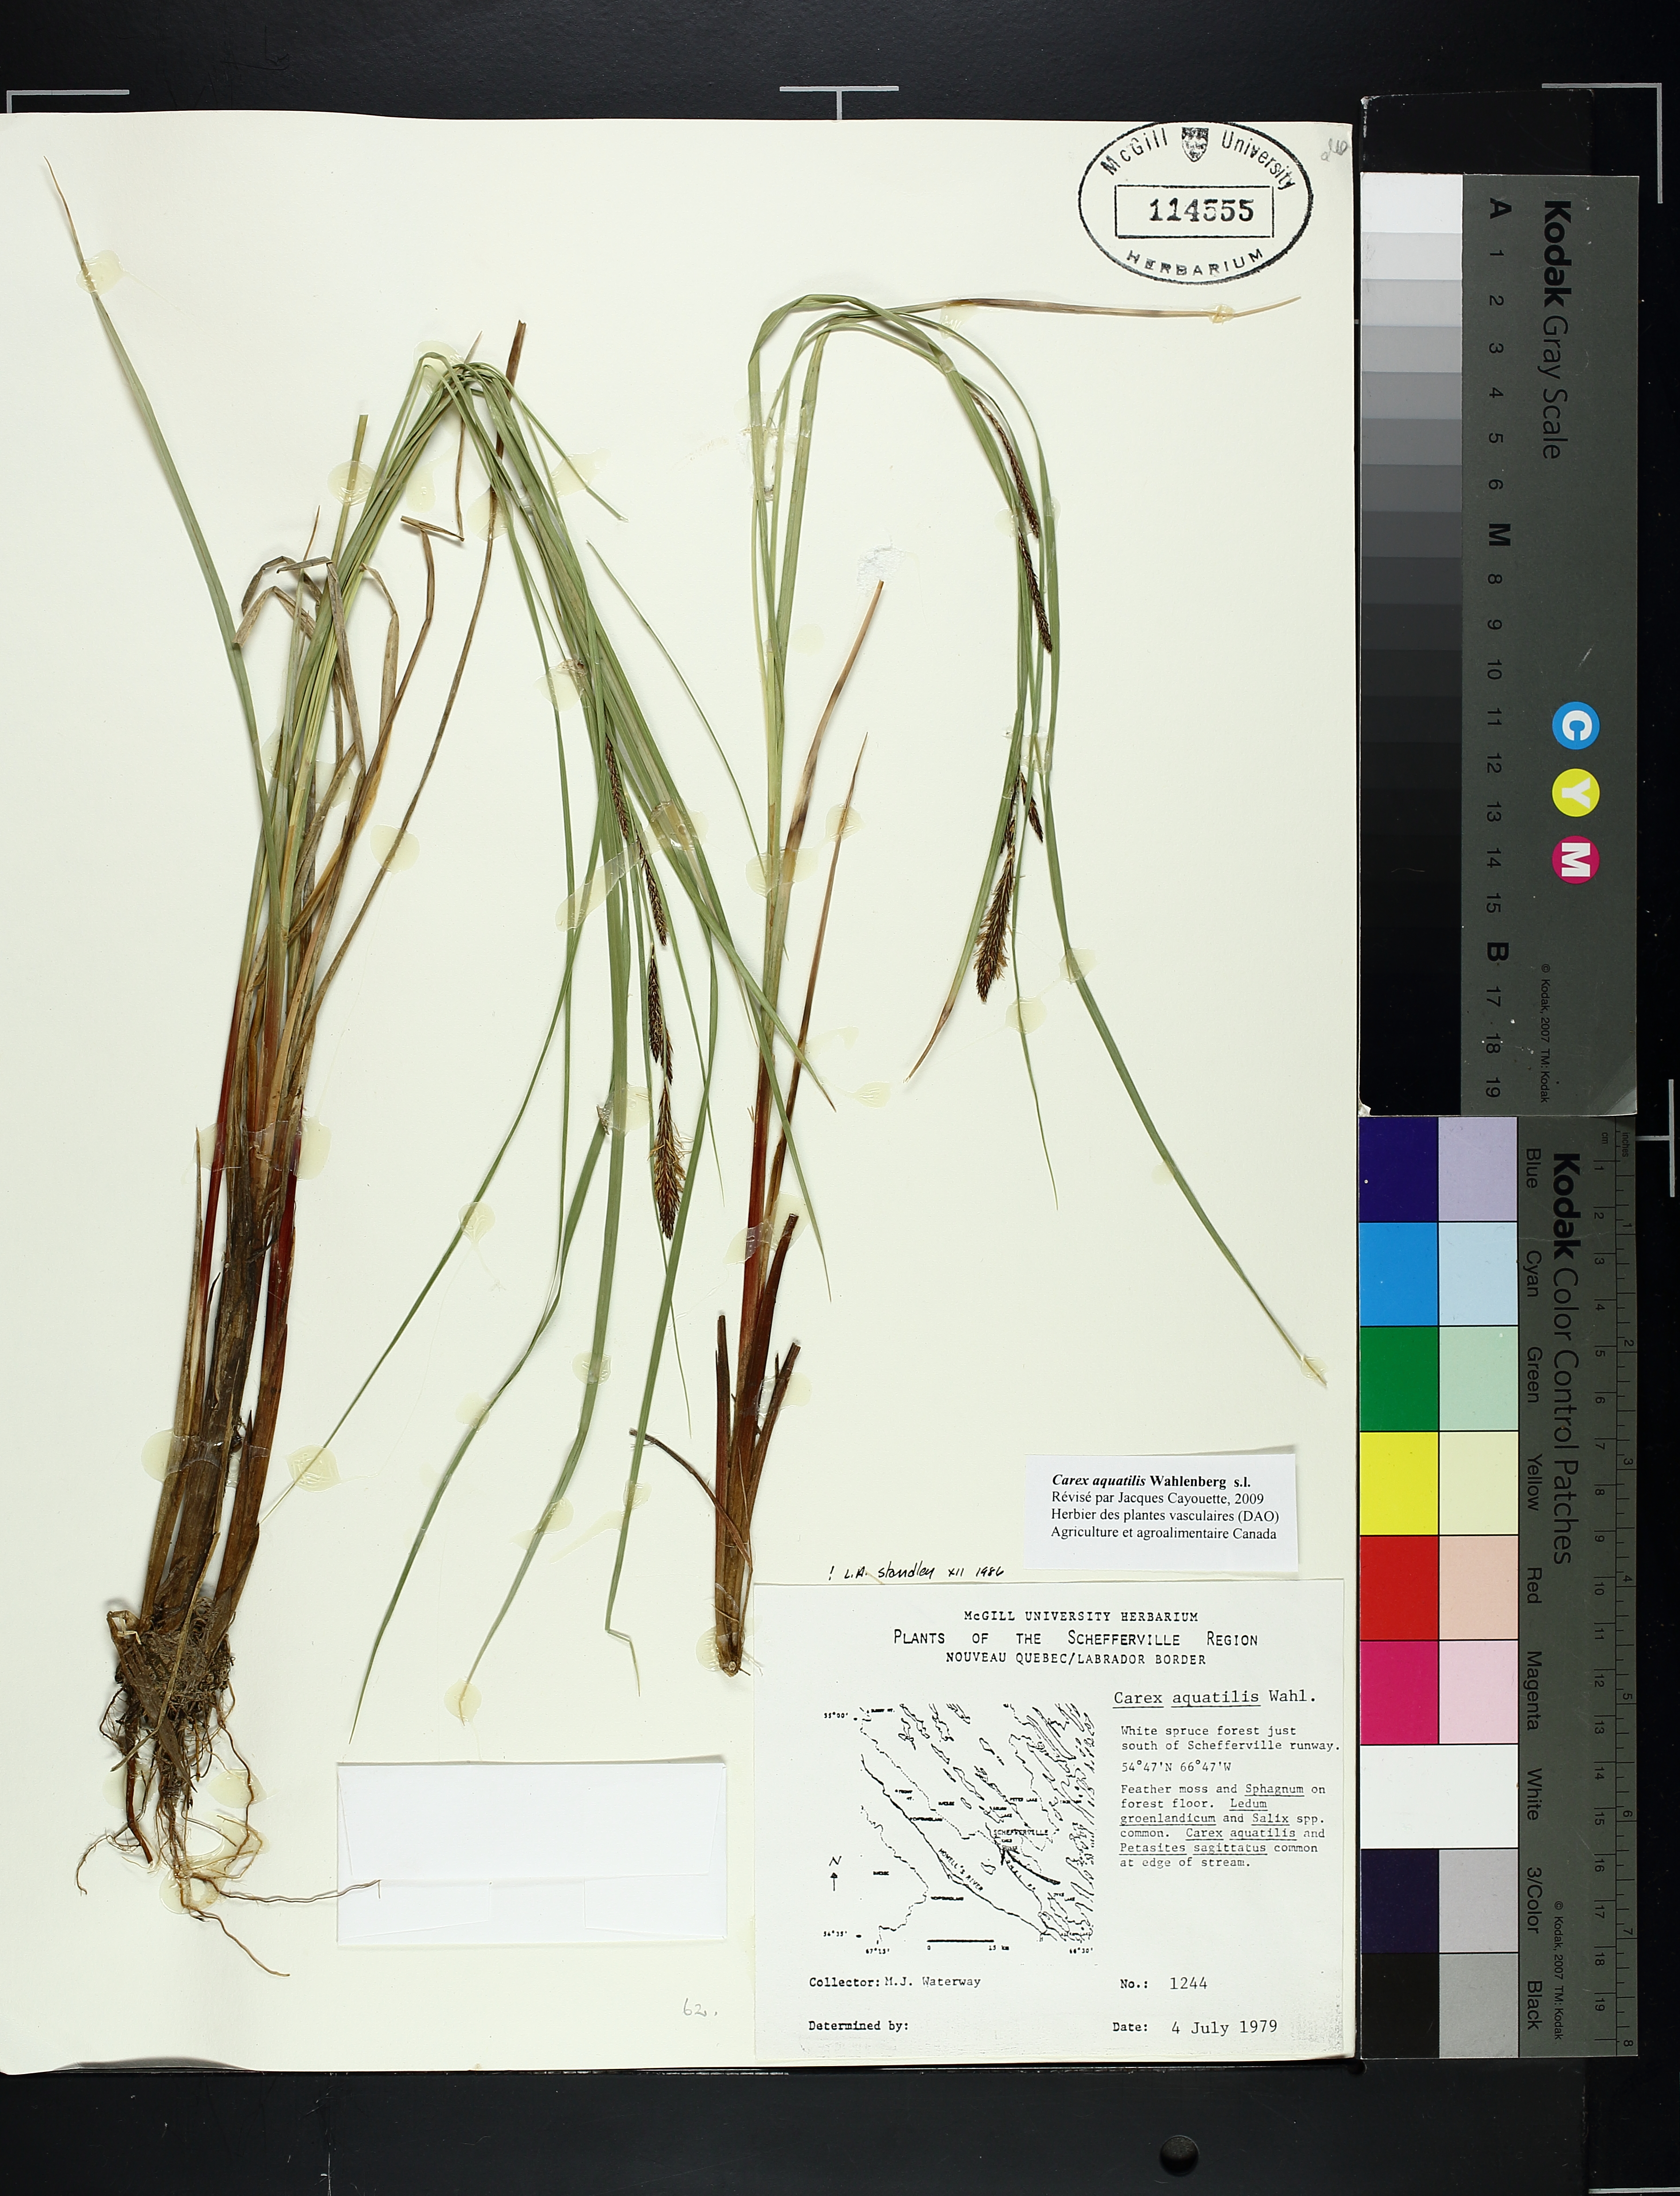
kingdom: Plantae
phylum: Tracheophyta
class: Liliopsida
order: Poales
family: Cyperaceae
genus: Carex
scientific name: Carex aquatilis
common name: Water sedge
